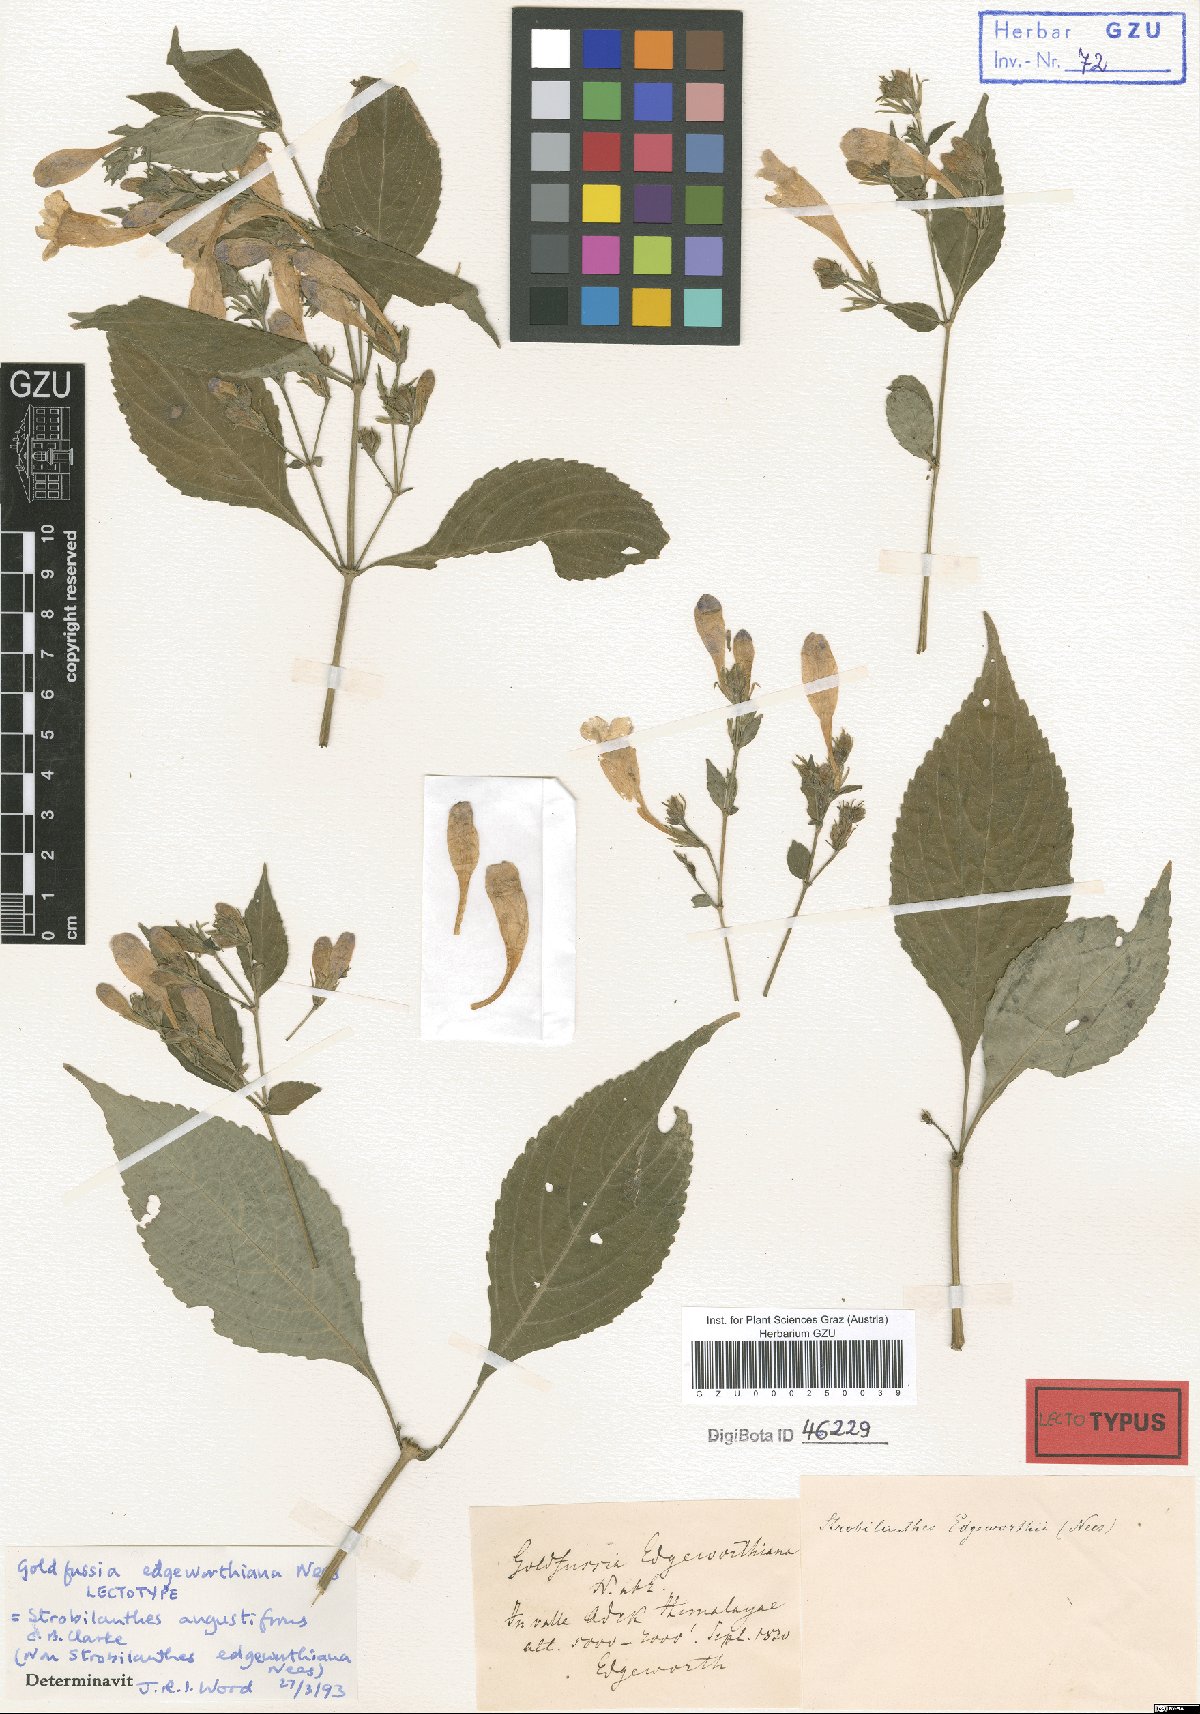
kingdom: Plantae
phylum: Tracheophyta
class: Magnoliopsida
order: Lamiales
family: Acanthaceae
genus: Strobilanthes
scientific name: Strobilanthes angustifrons
